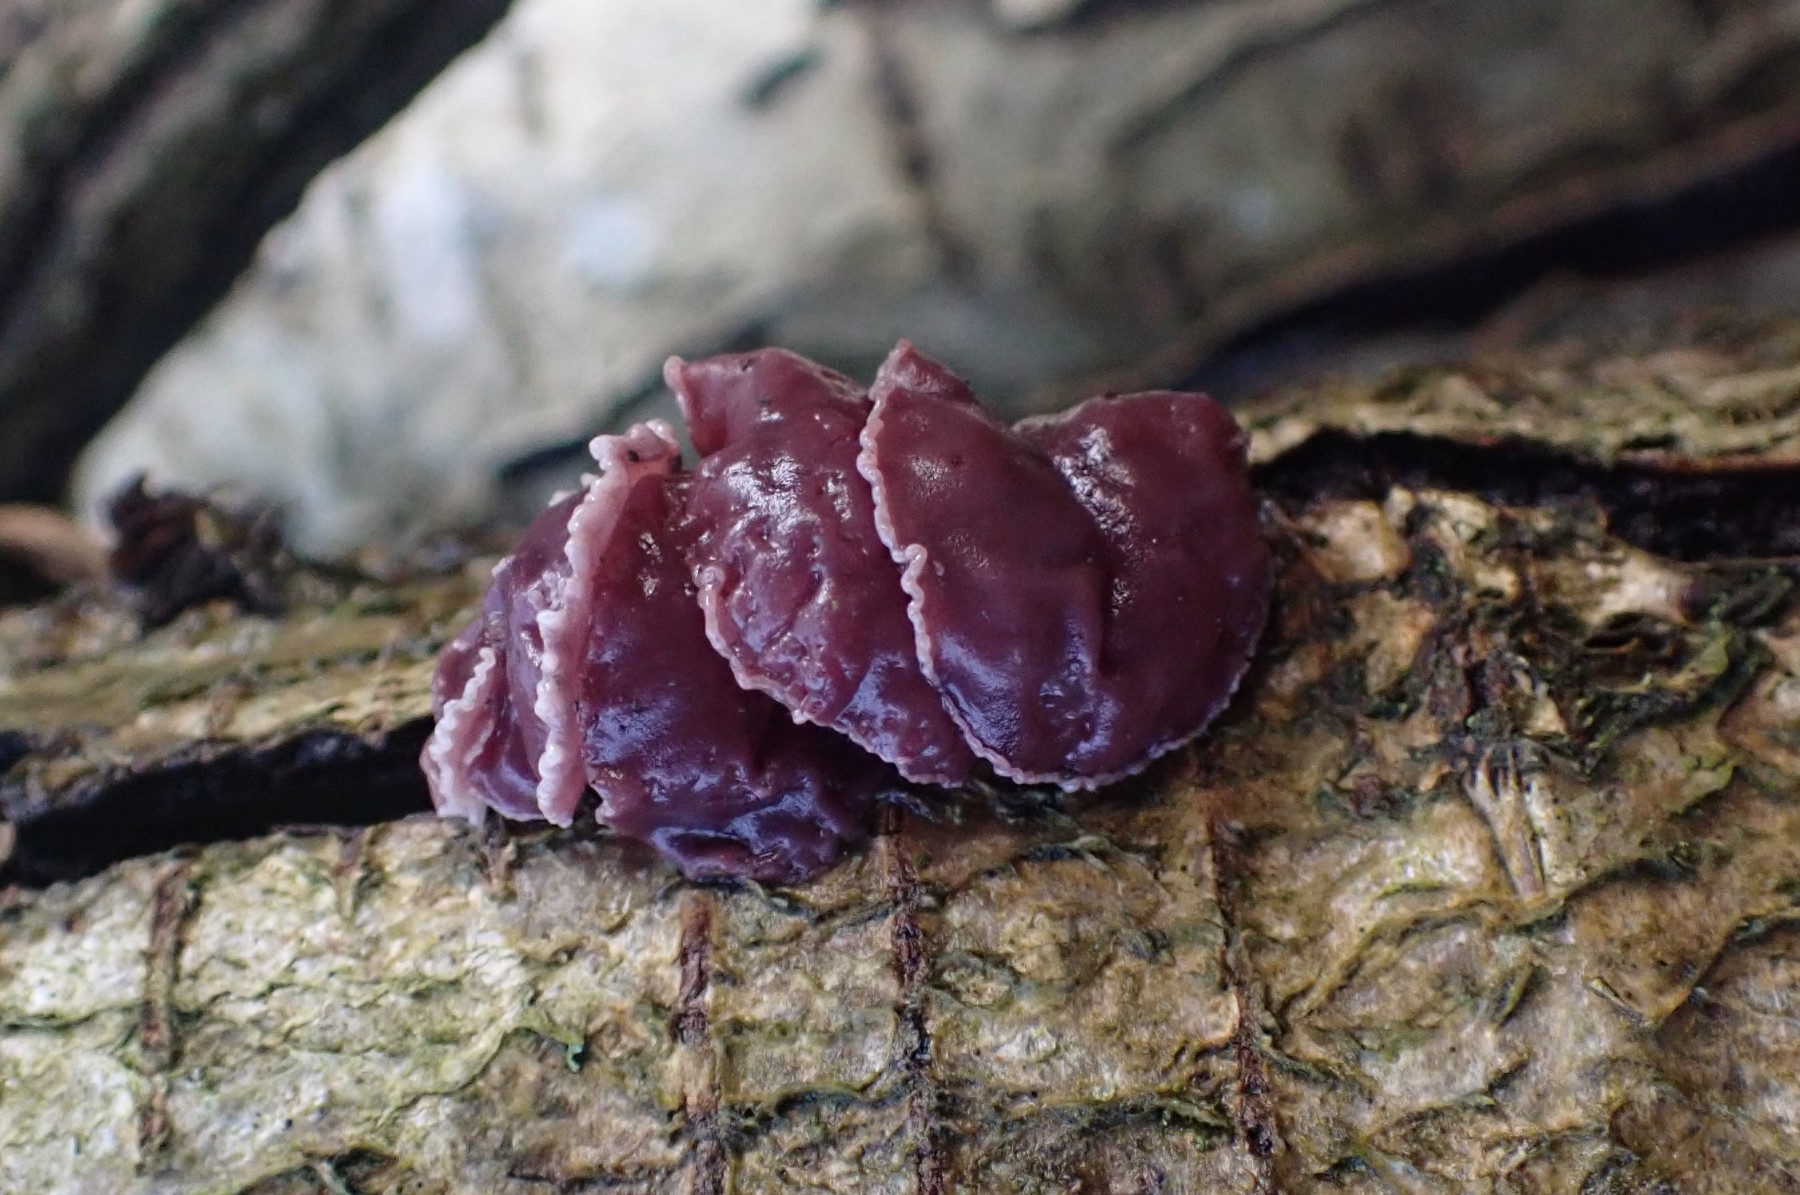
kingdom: Fungi
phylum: Ascomycota
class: Leotiomycetes
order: Helotiales
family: Gelatinodiscaceae
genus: Ascocoryne
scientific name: Ascocoryne cylichnium
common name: stor sejskive
